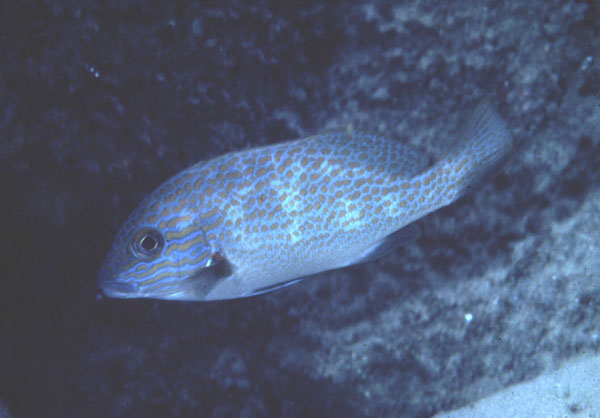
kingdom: Animalia
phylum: Chordata
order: Perciformes
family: Haemulidae
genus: Plectorhinchus
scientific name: Plectorhinchus flavomaculatus
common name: Netted sweetlips
